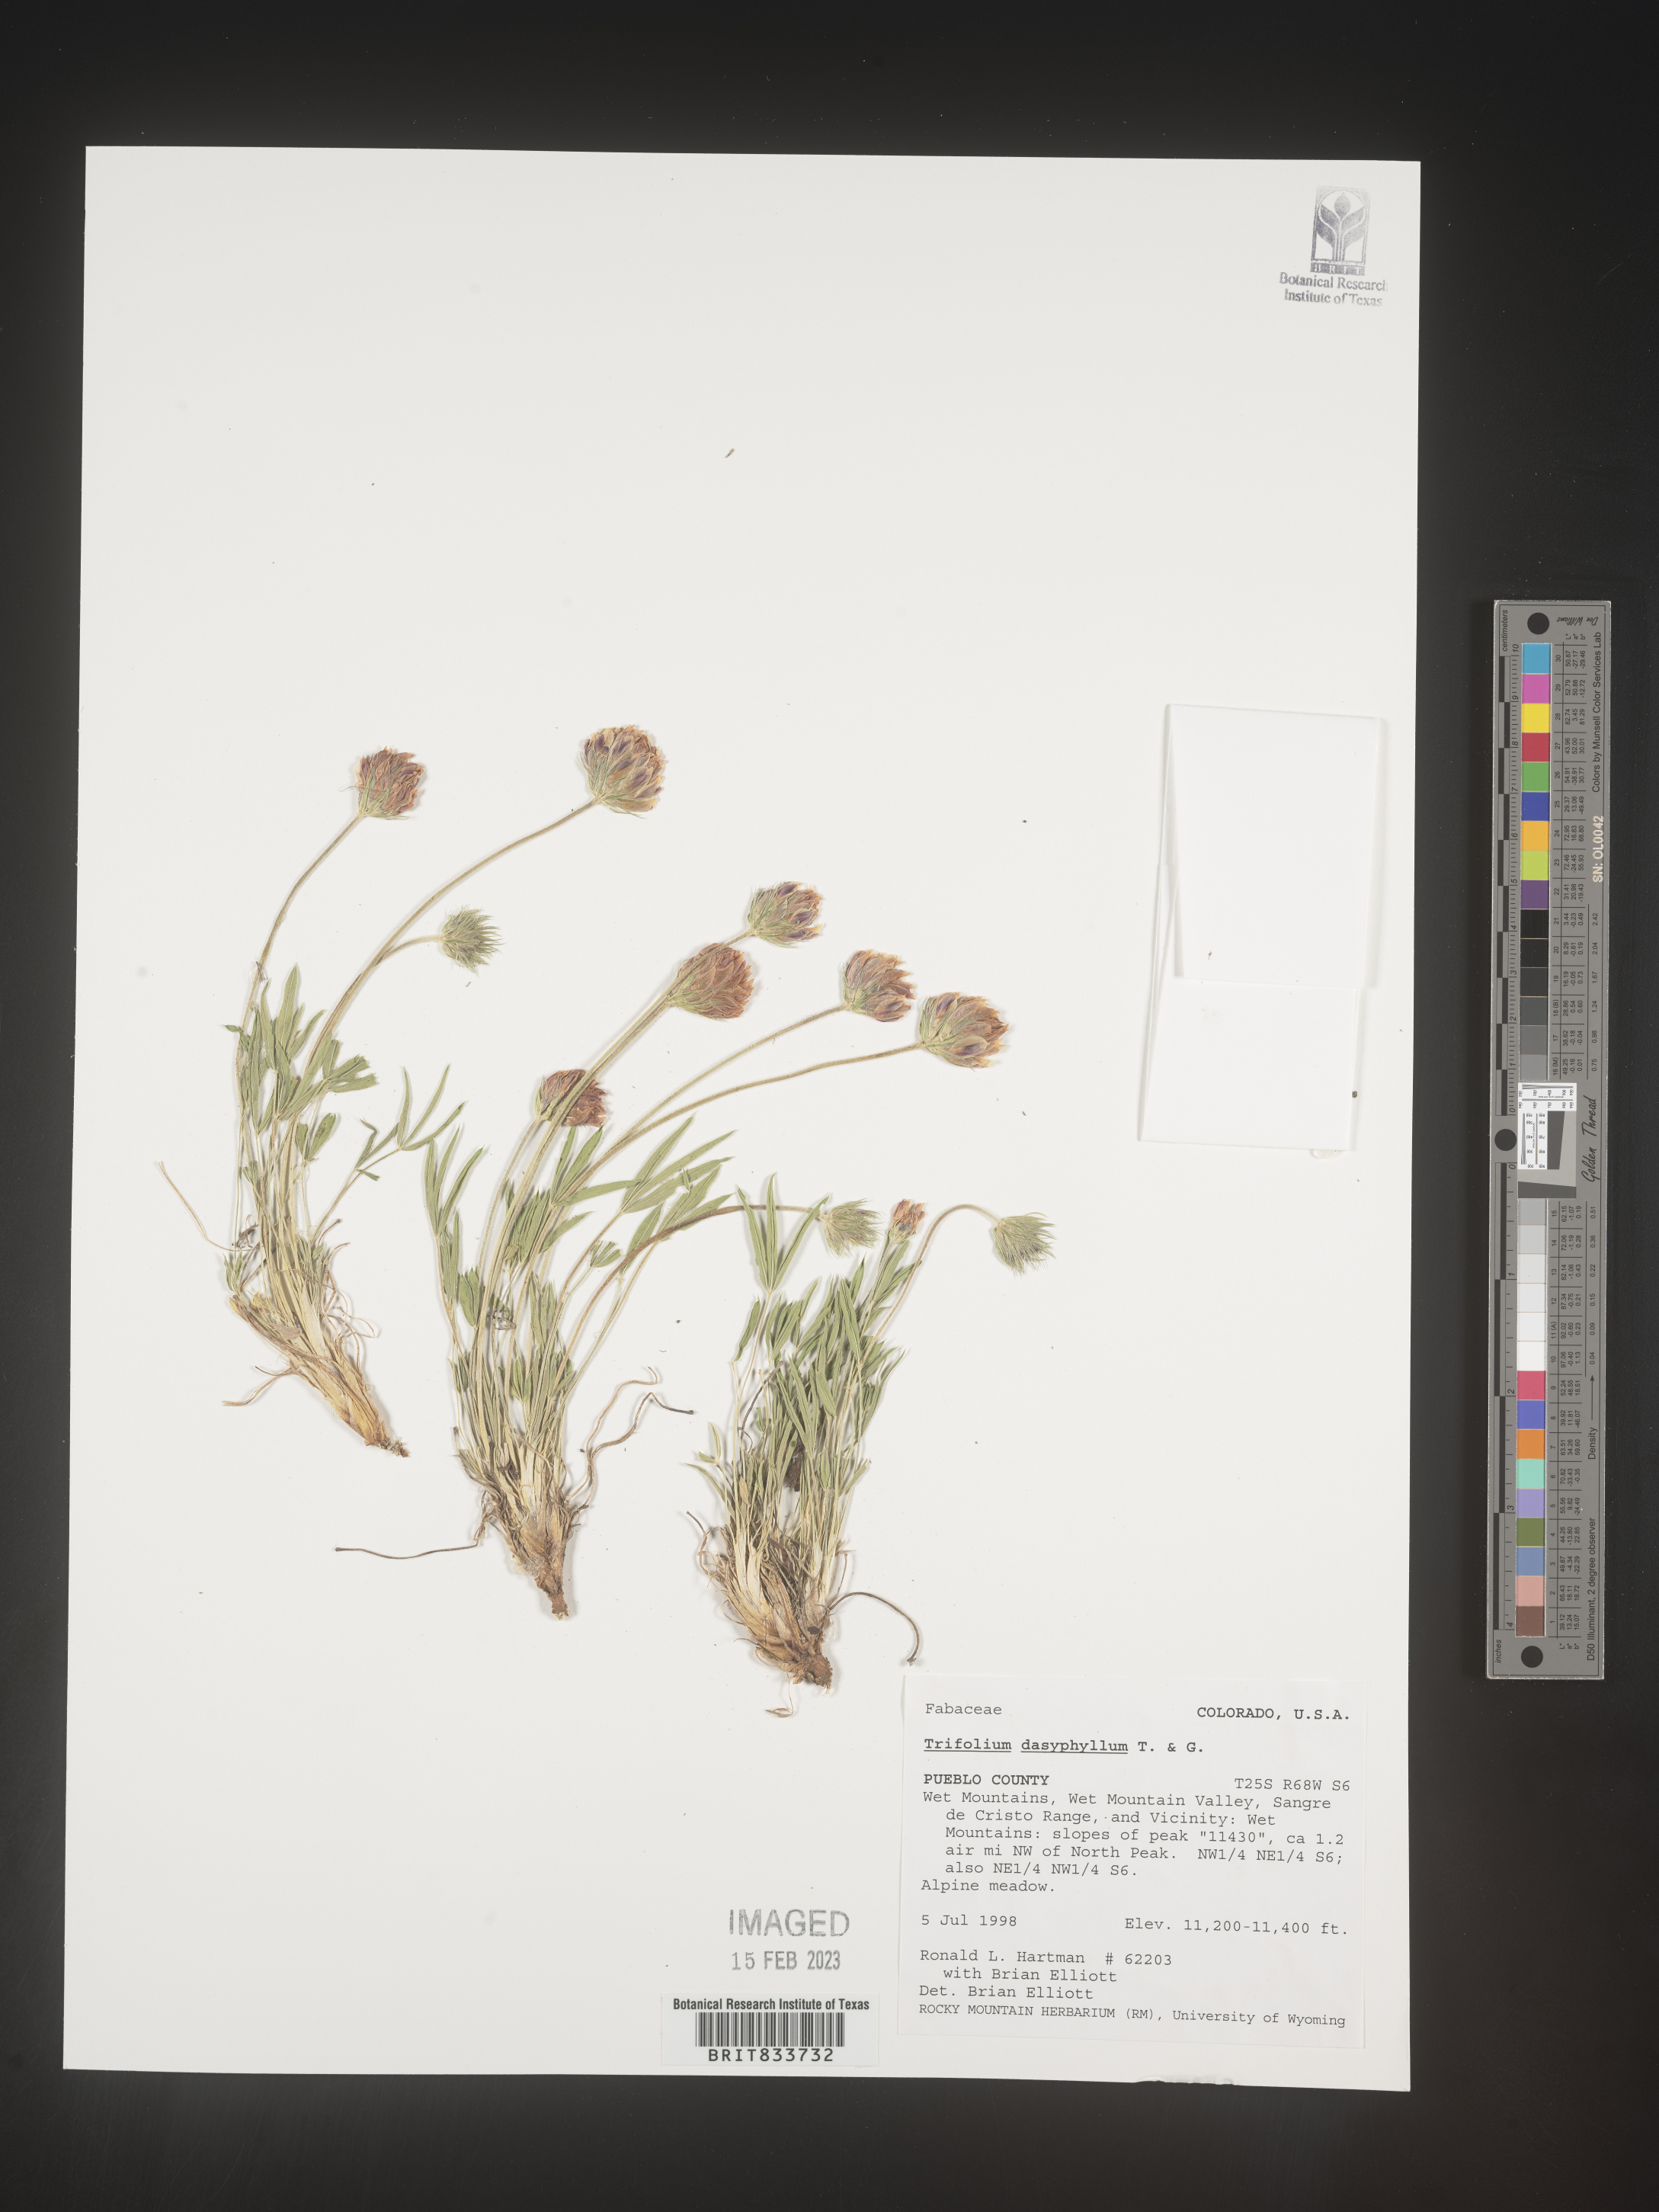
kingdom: Plantae
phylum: Tracheophyta
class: Magnoliopsida
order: Fabales
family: Fabaceae
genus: Trifolium
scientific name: Trifolium
